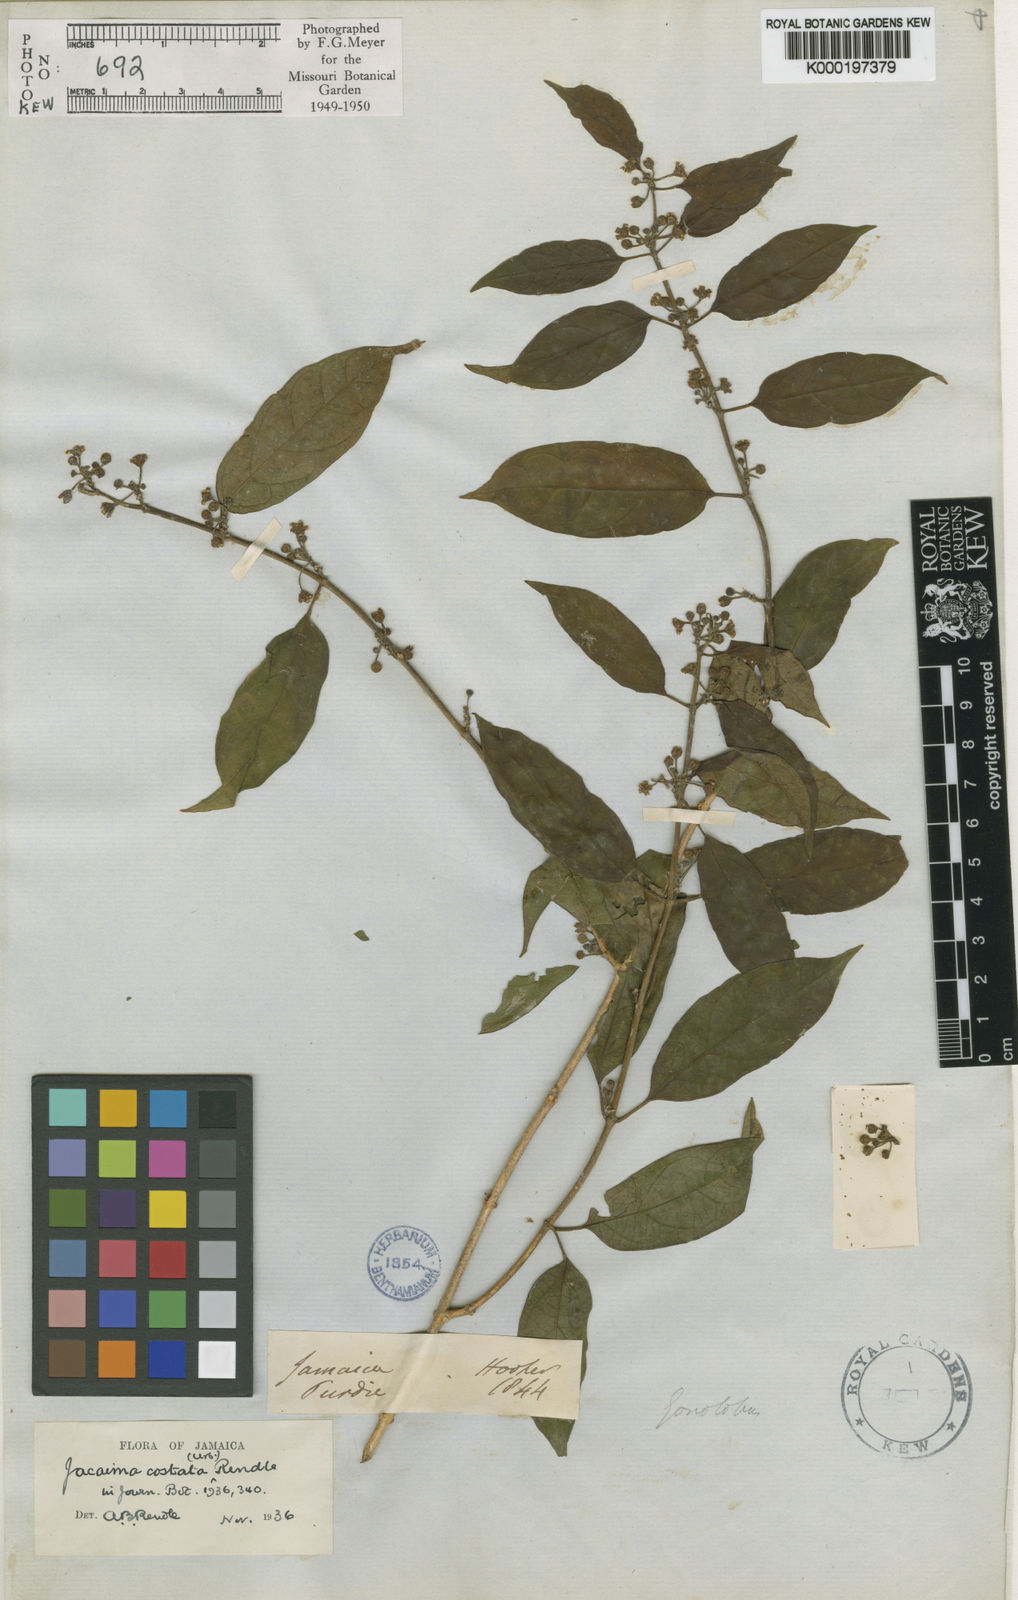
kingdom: Plantae
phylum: Tracheophyta
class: Magnoliopsida
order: Gentianales
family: Apocynaceae
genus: Jacaima
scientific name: Jacaima costata
